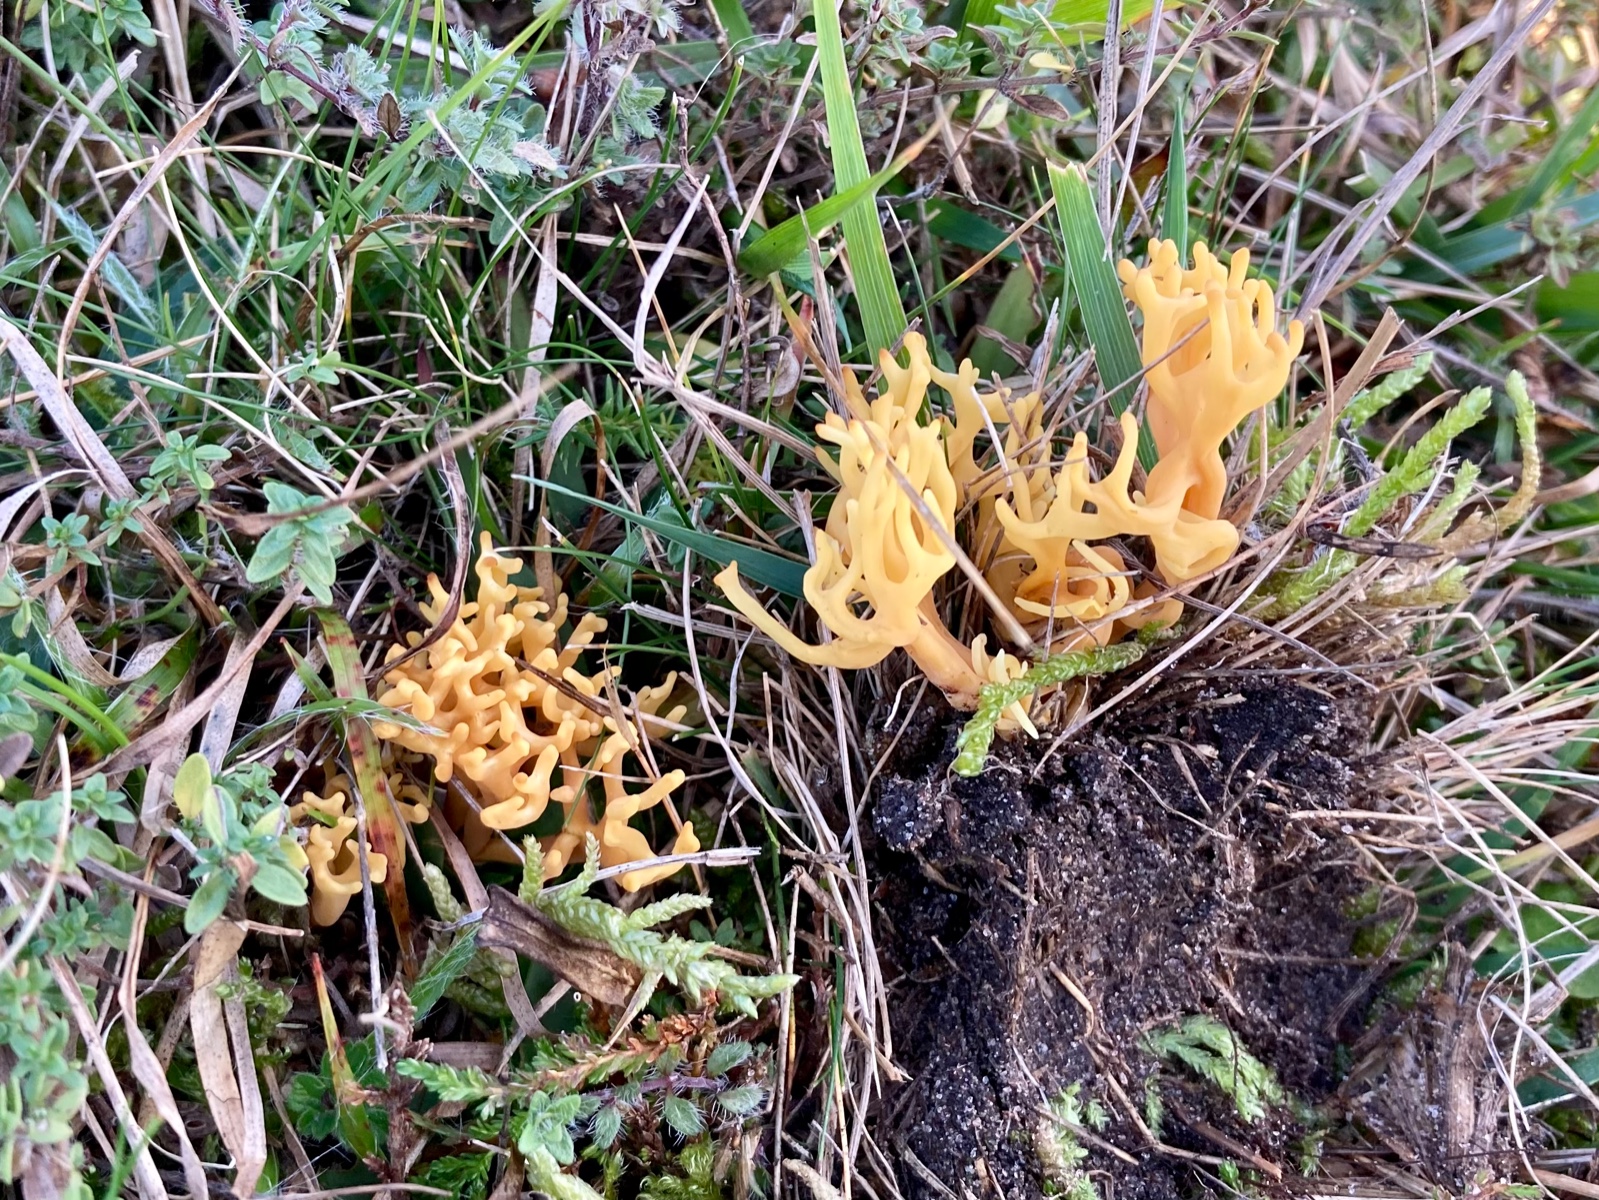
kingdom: Fungi
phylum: Basidiomycota
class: Agaricomycetes
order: Agaricales
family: Clavariaceae
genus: Clavulinopsis
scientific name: Clavulinopsis corniculata
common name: eng-køllesvamp
